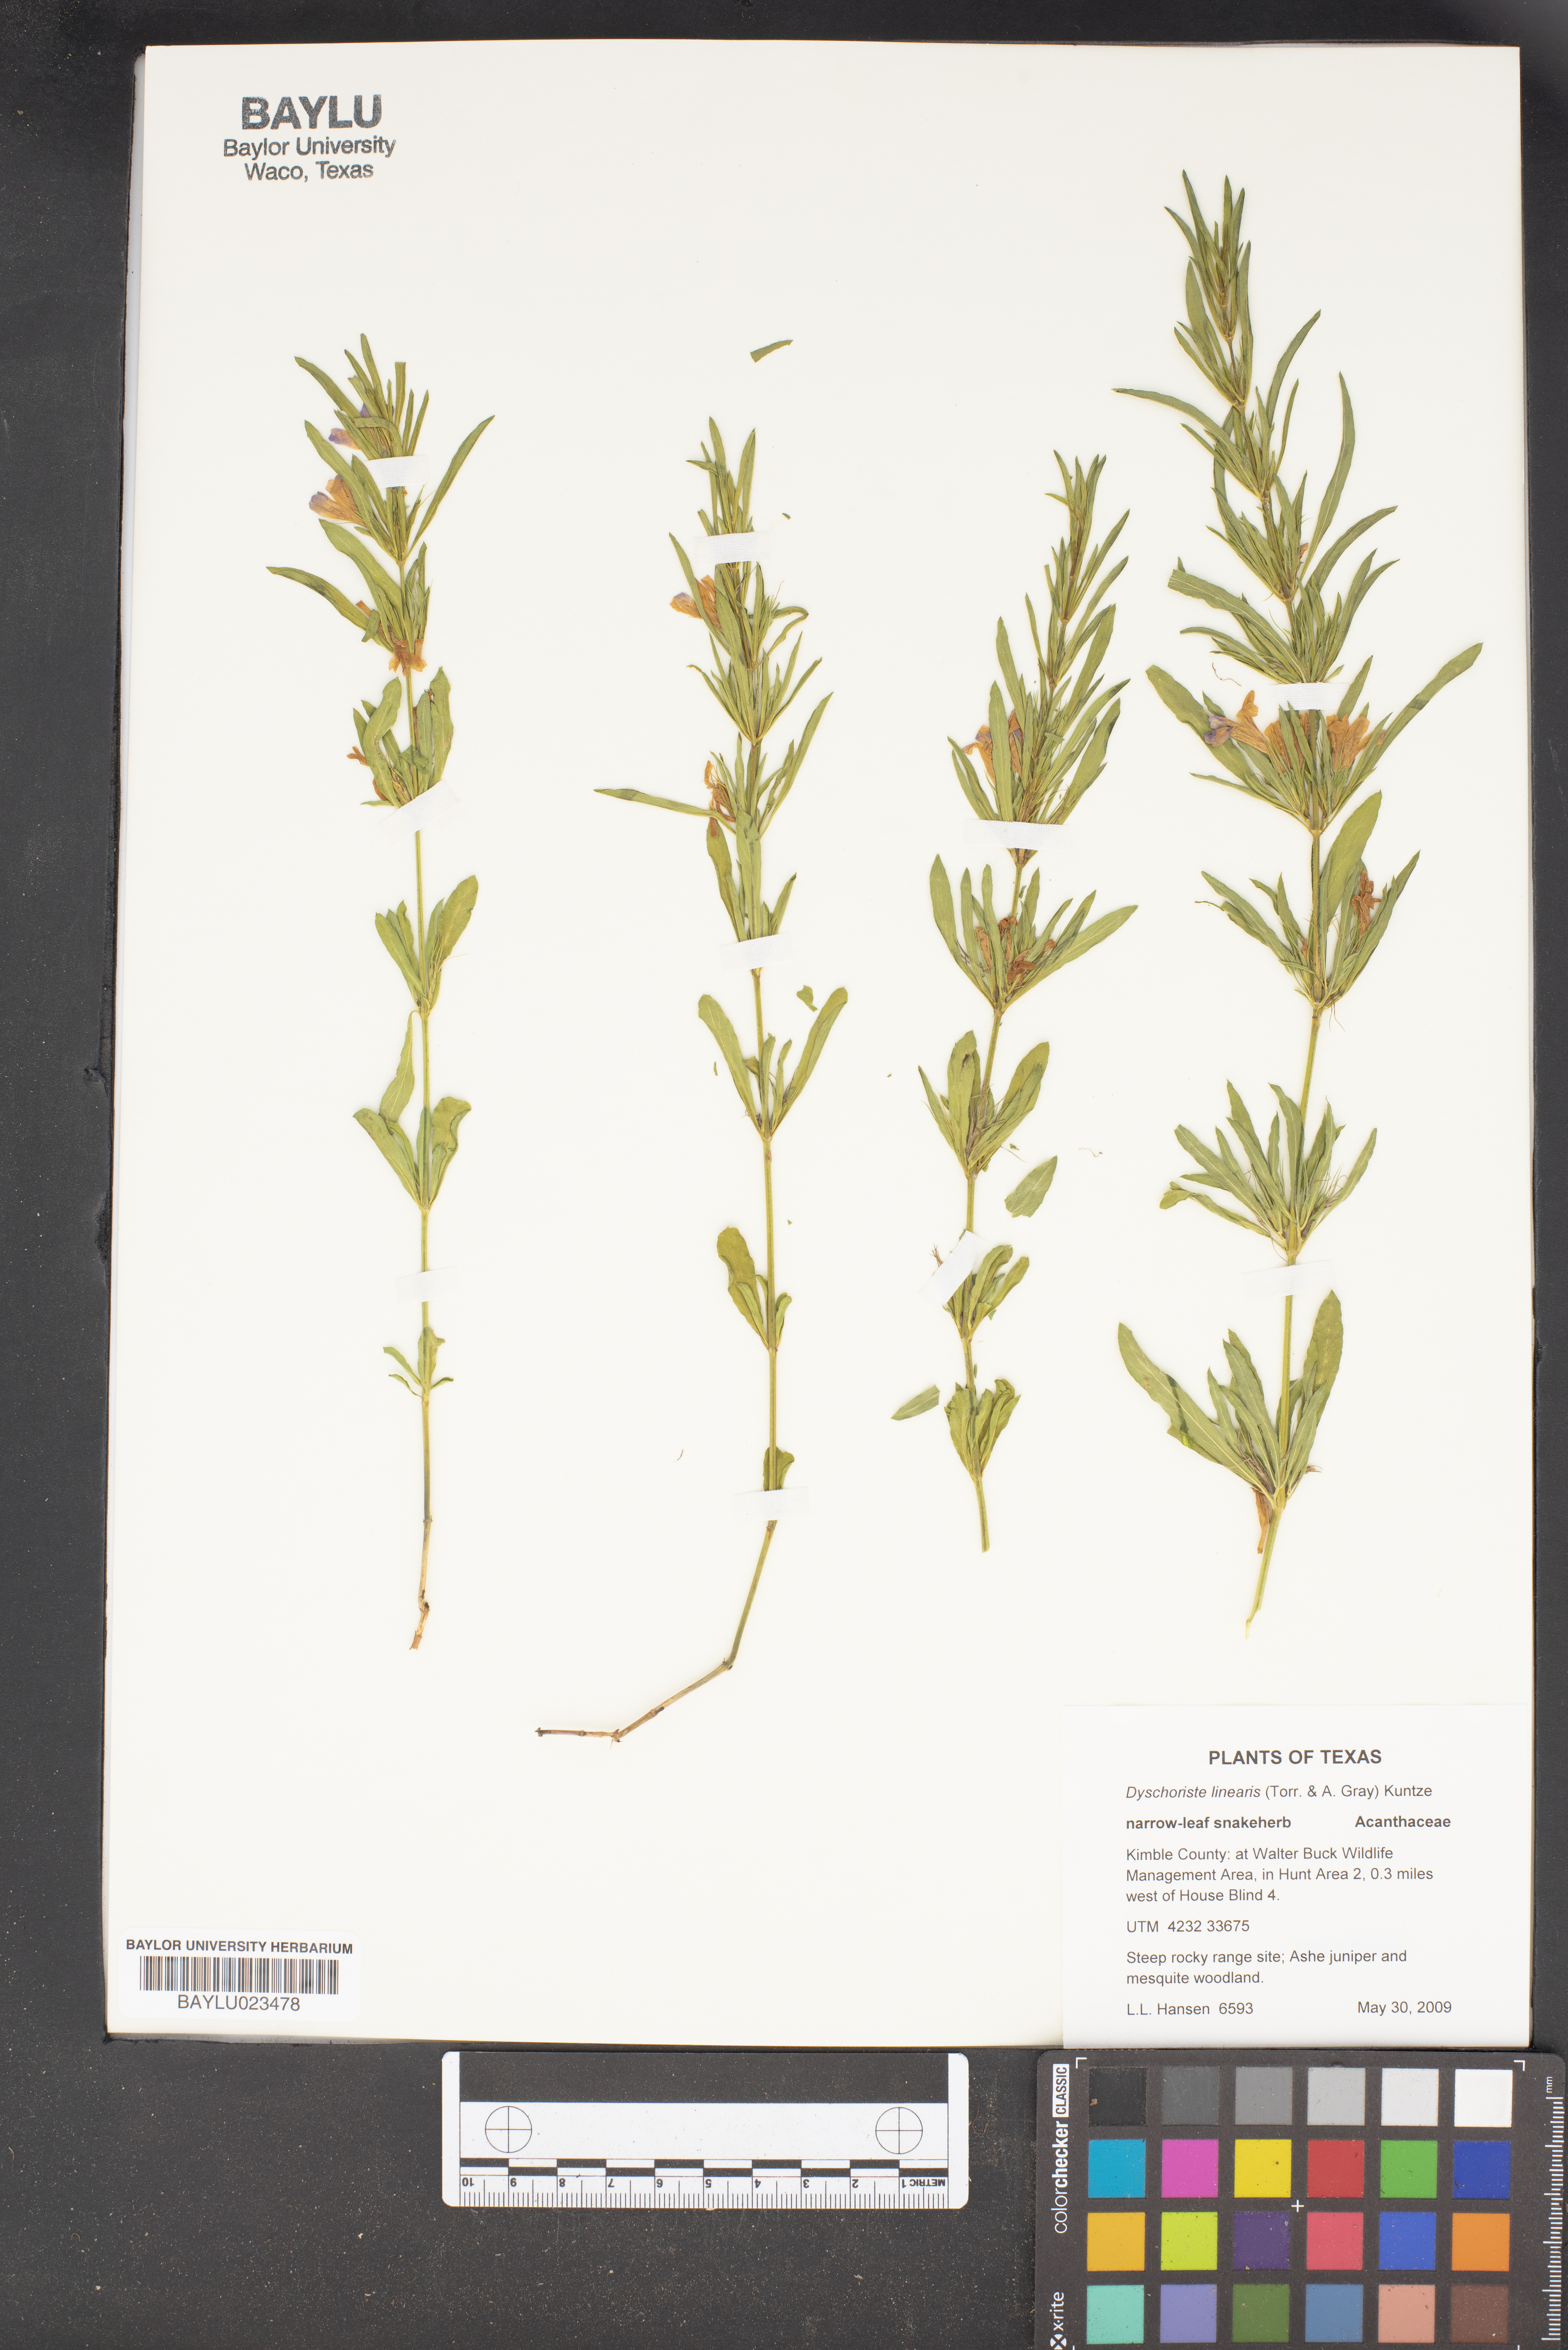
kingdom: Plantae
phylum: Tracheophyta
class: Magnoliopsida
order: Lamiales
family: Acanthaceae
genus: Dyschoriste
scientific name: Dyschoriste linearis
